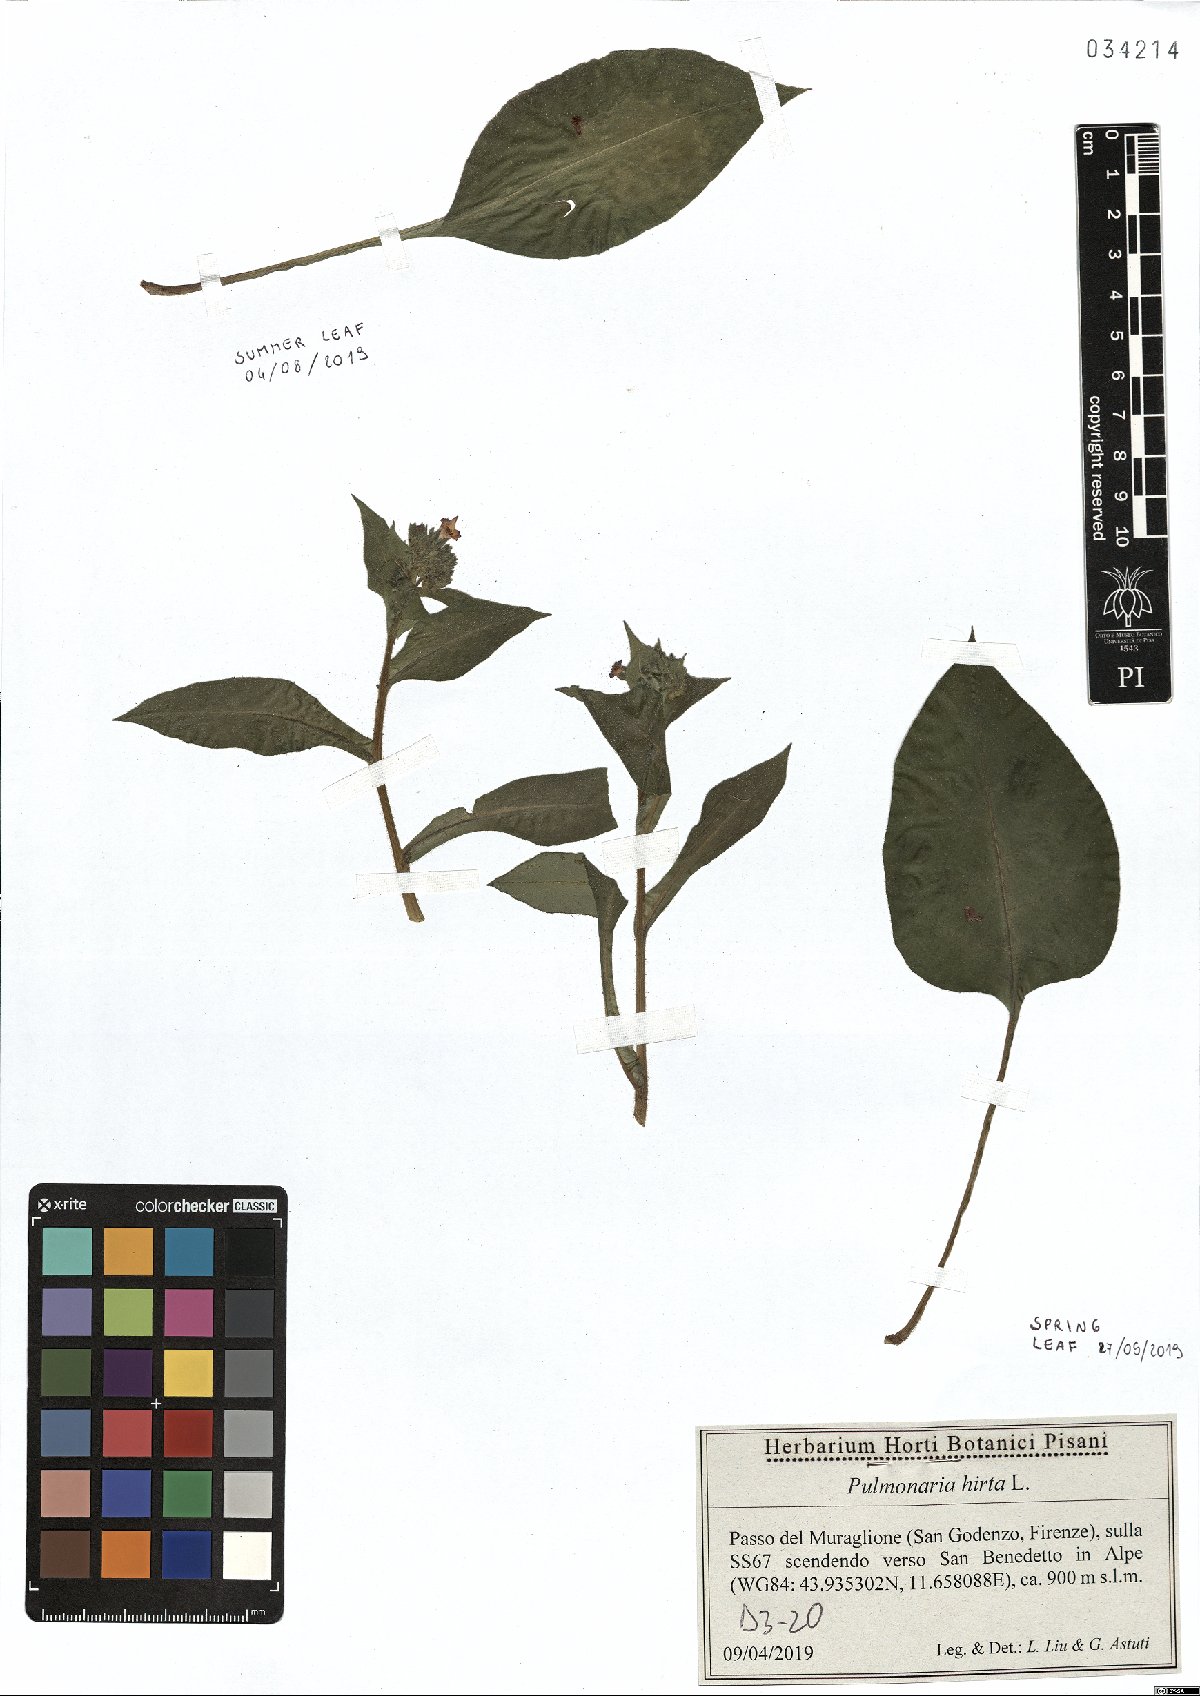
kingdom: Plantae
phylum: Tracheophyta
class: Magnoliopsida
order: Boraginales
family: Boraginaceae
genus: Pulmonaria
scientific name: Pulmonaria hirta
